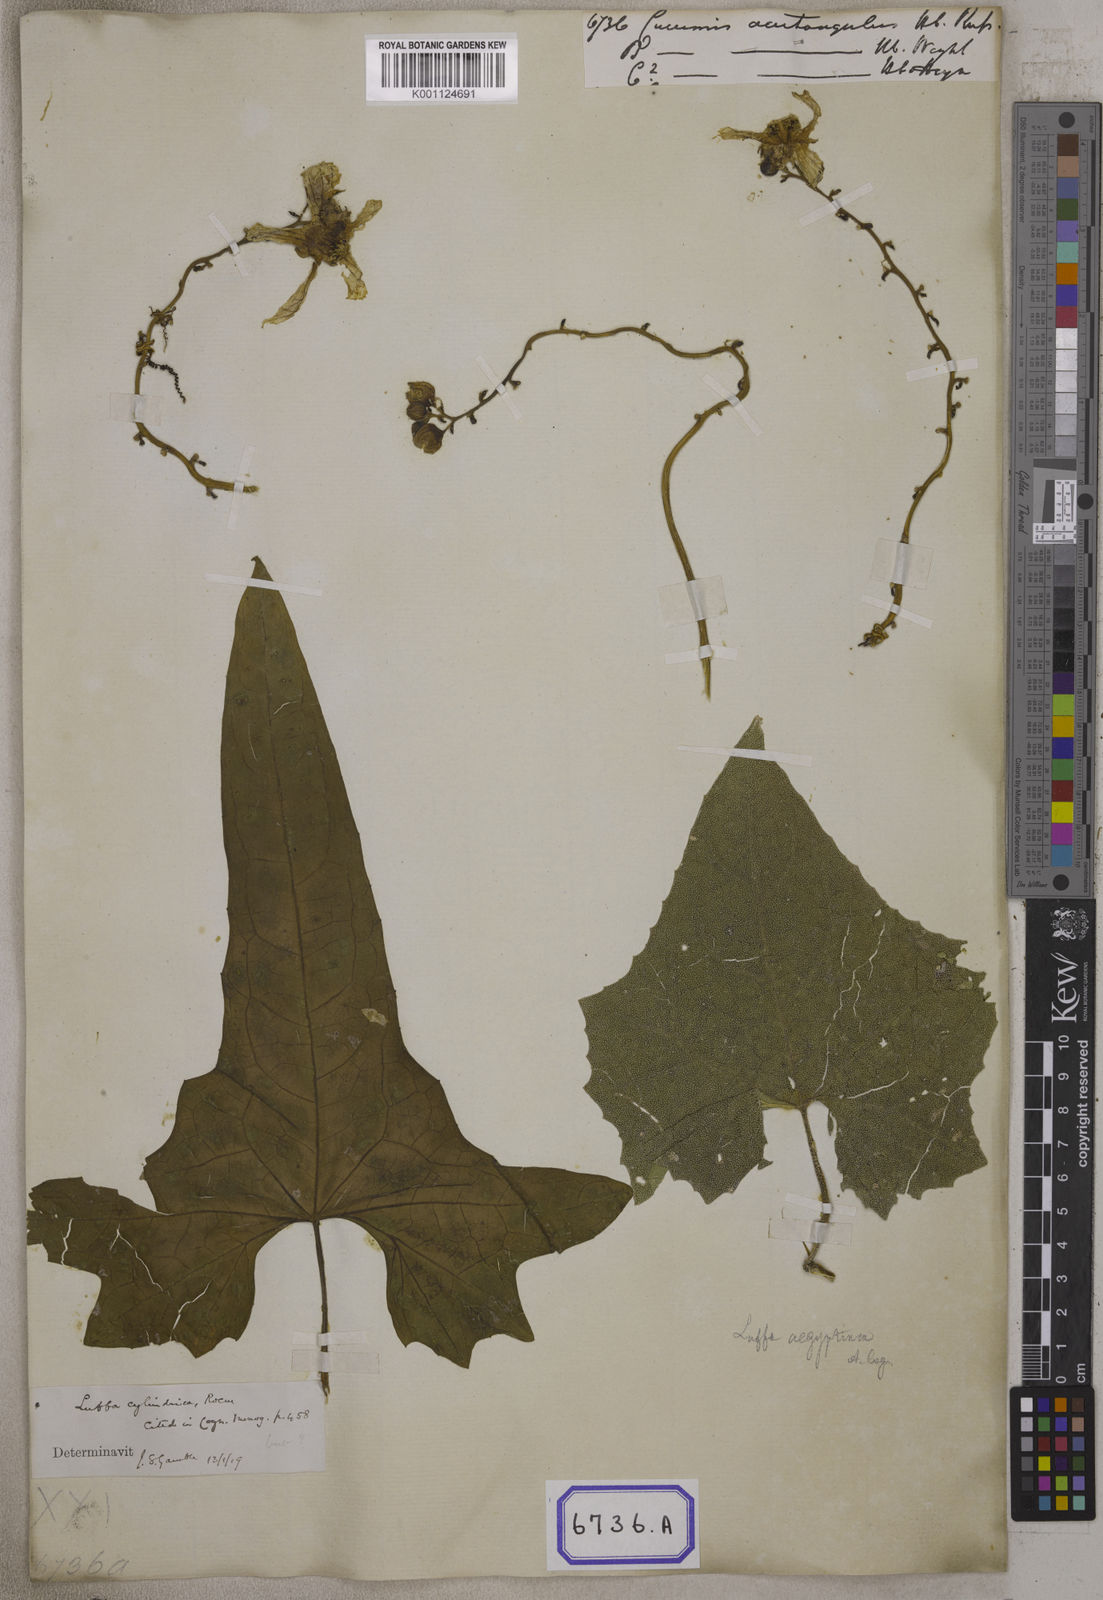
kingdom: Plantae
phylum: Tracheophyta
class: Magnoliopsida
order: Cucurbitales
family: Cucurbitaceae
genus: Cucumis
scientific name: Cucumis
